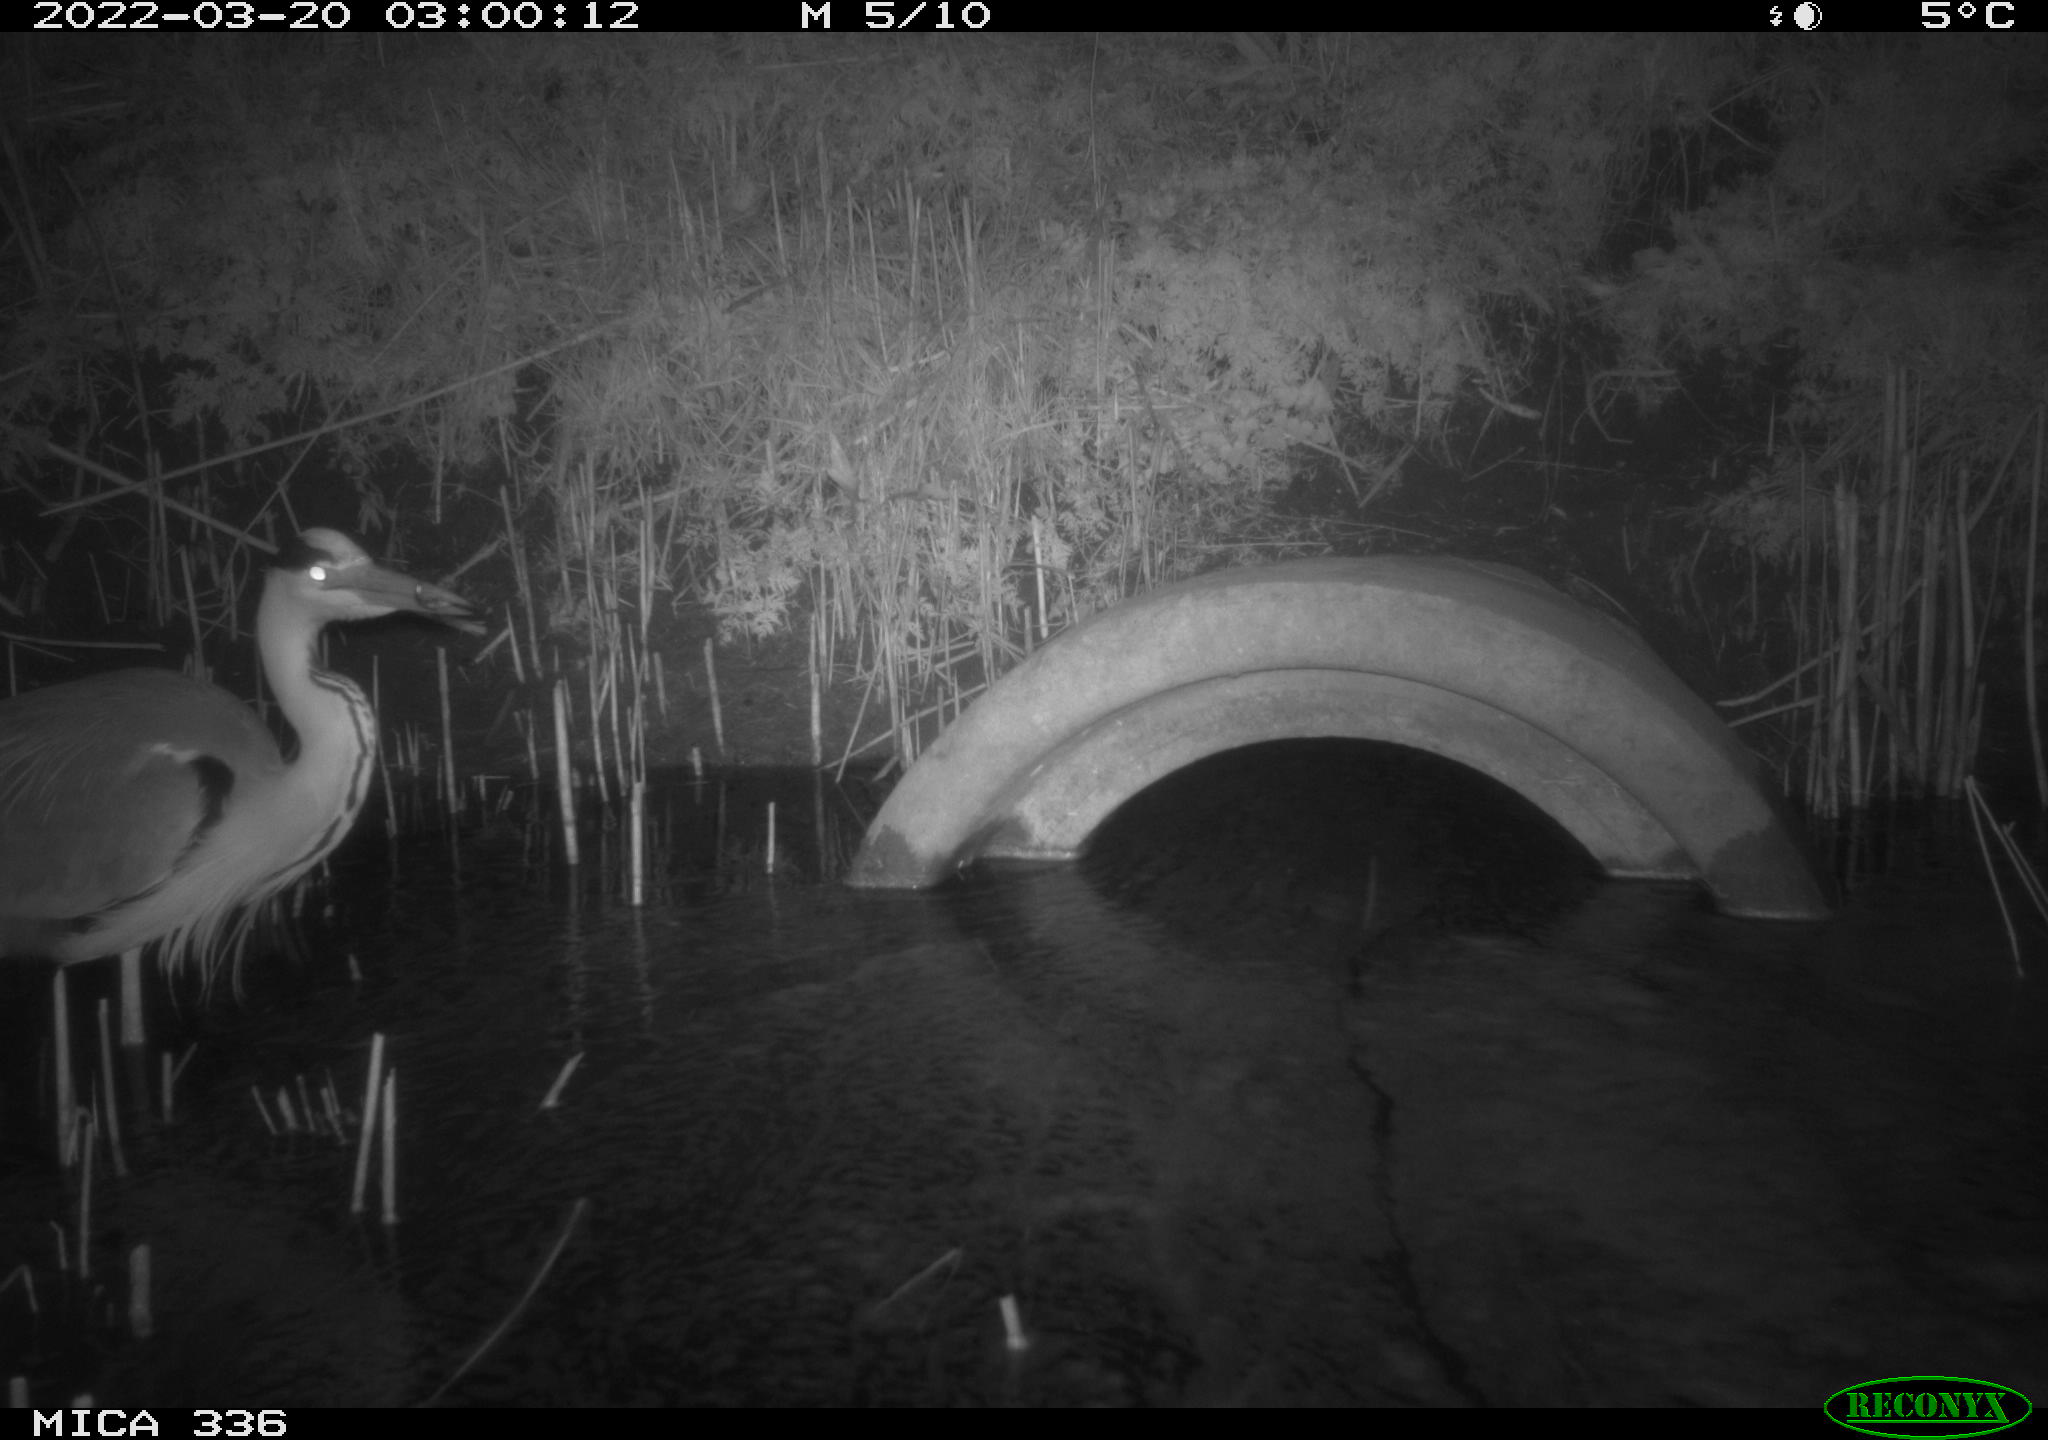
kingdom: Animalia
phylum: Chordata
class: Aves
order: Pelecaniformes
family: Ardeidae
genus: Ardea
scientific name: Ardea cinerea
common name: Grey heron
